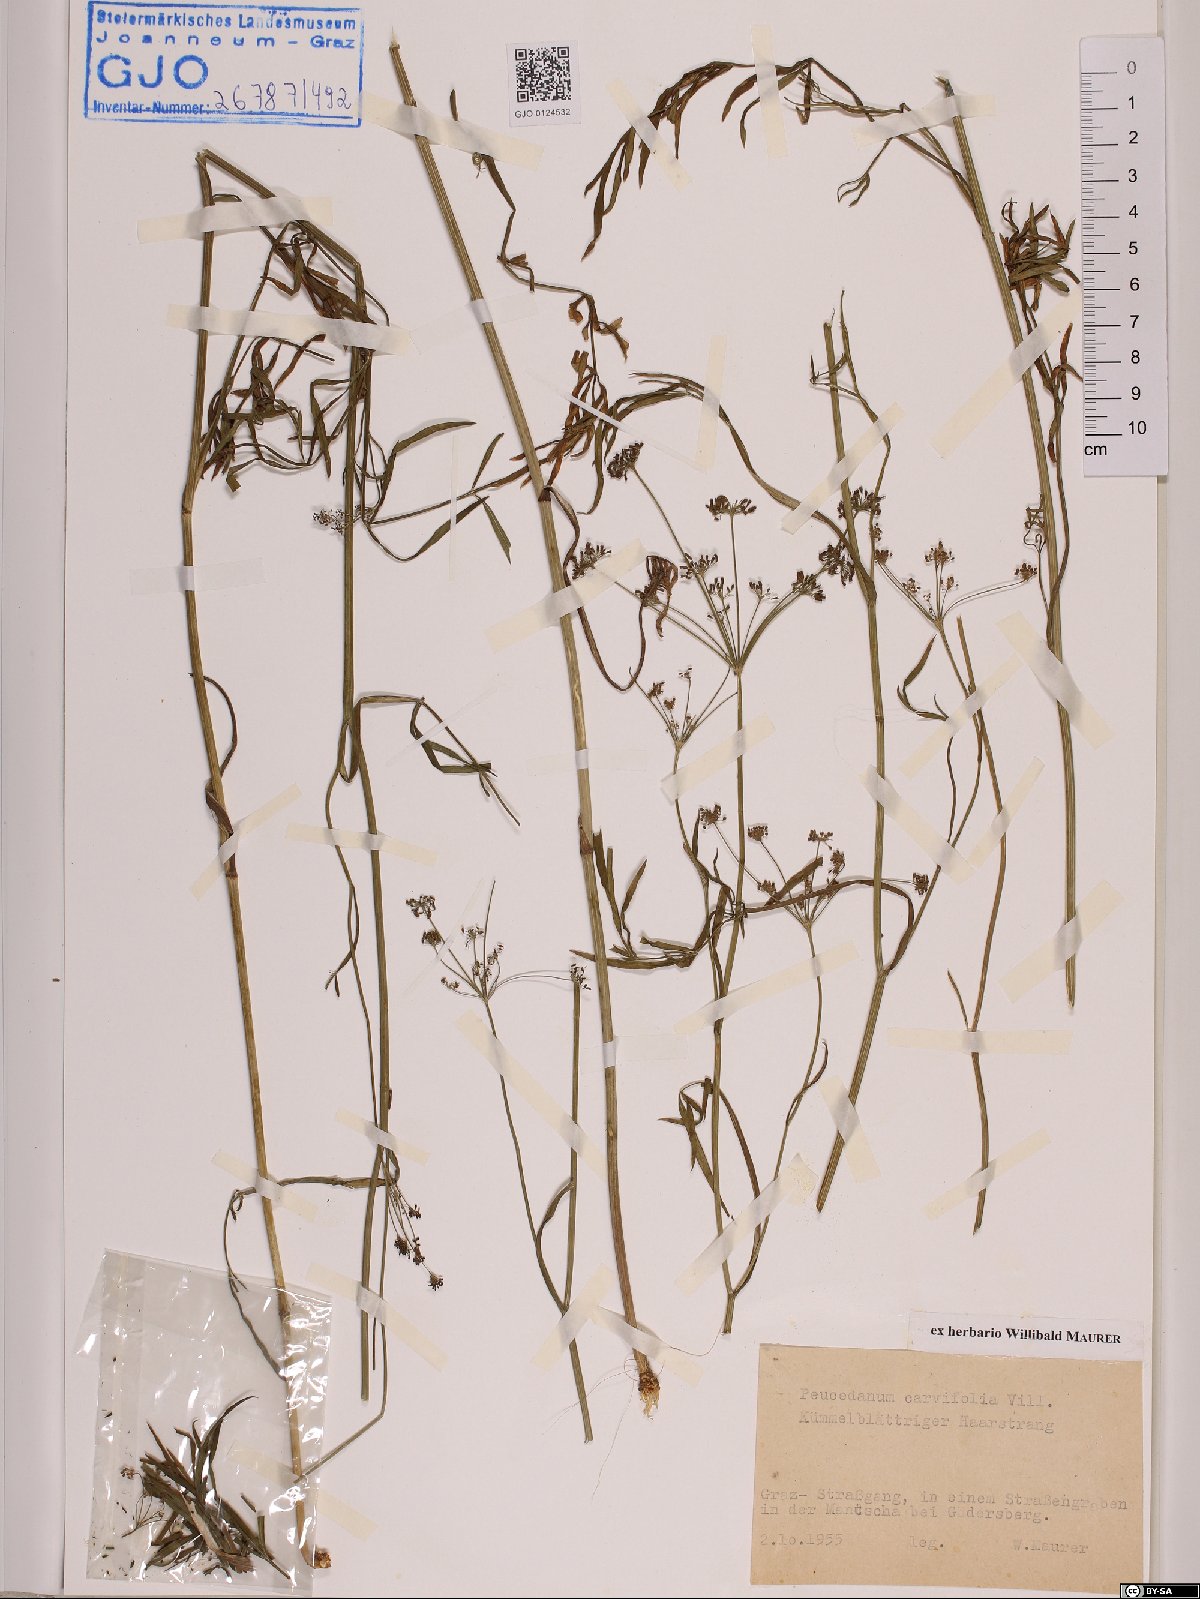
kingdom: Plantae
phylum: Tracheophyta
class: Magnoliopsida
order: Apiales
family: Apiaceae
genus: Dichoropetalum
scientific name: Dichoropetalum carvifolia
